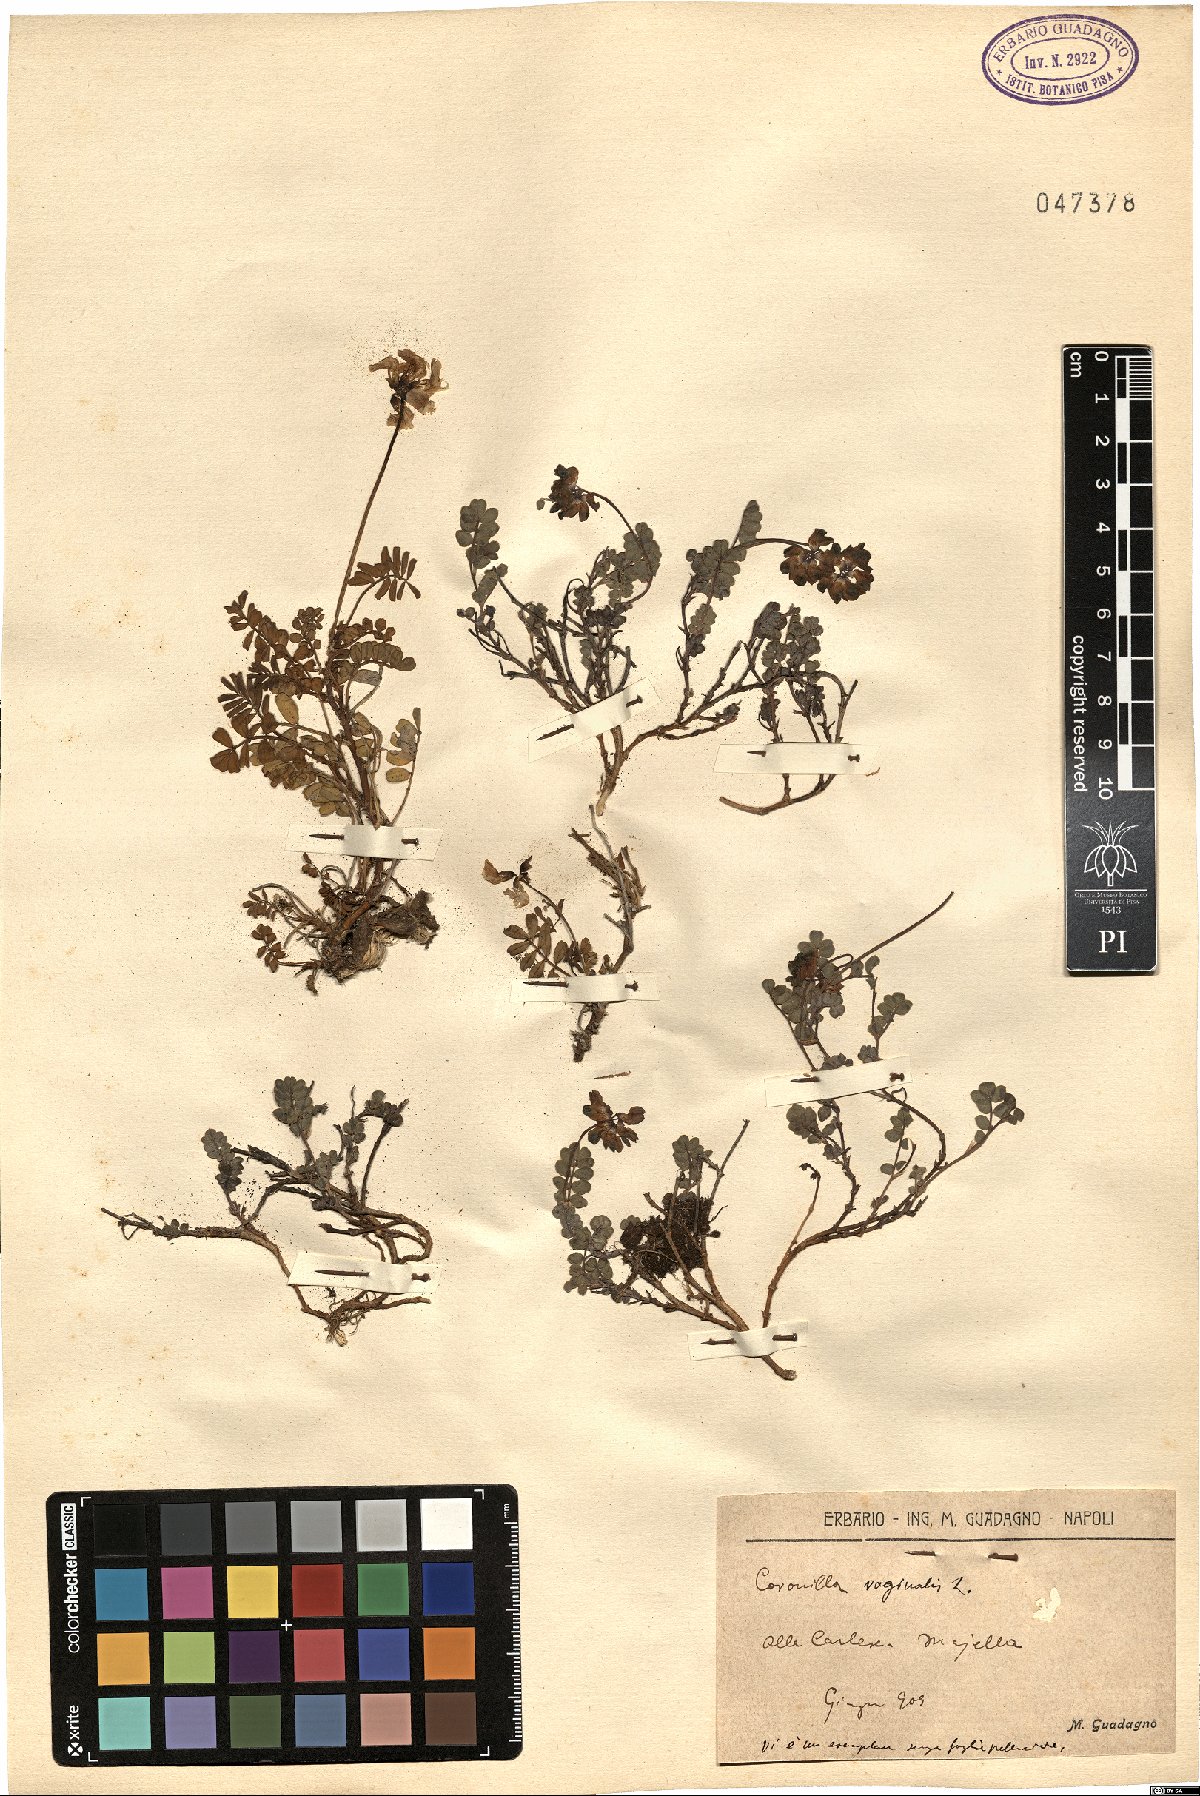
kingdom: Plantae
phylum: Tracheophyta
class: Magnoliopsida
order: Fabales
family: Fabaceae
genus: Coronilla
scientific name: Coronilla vaginalis
